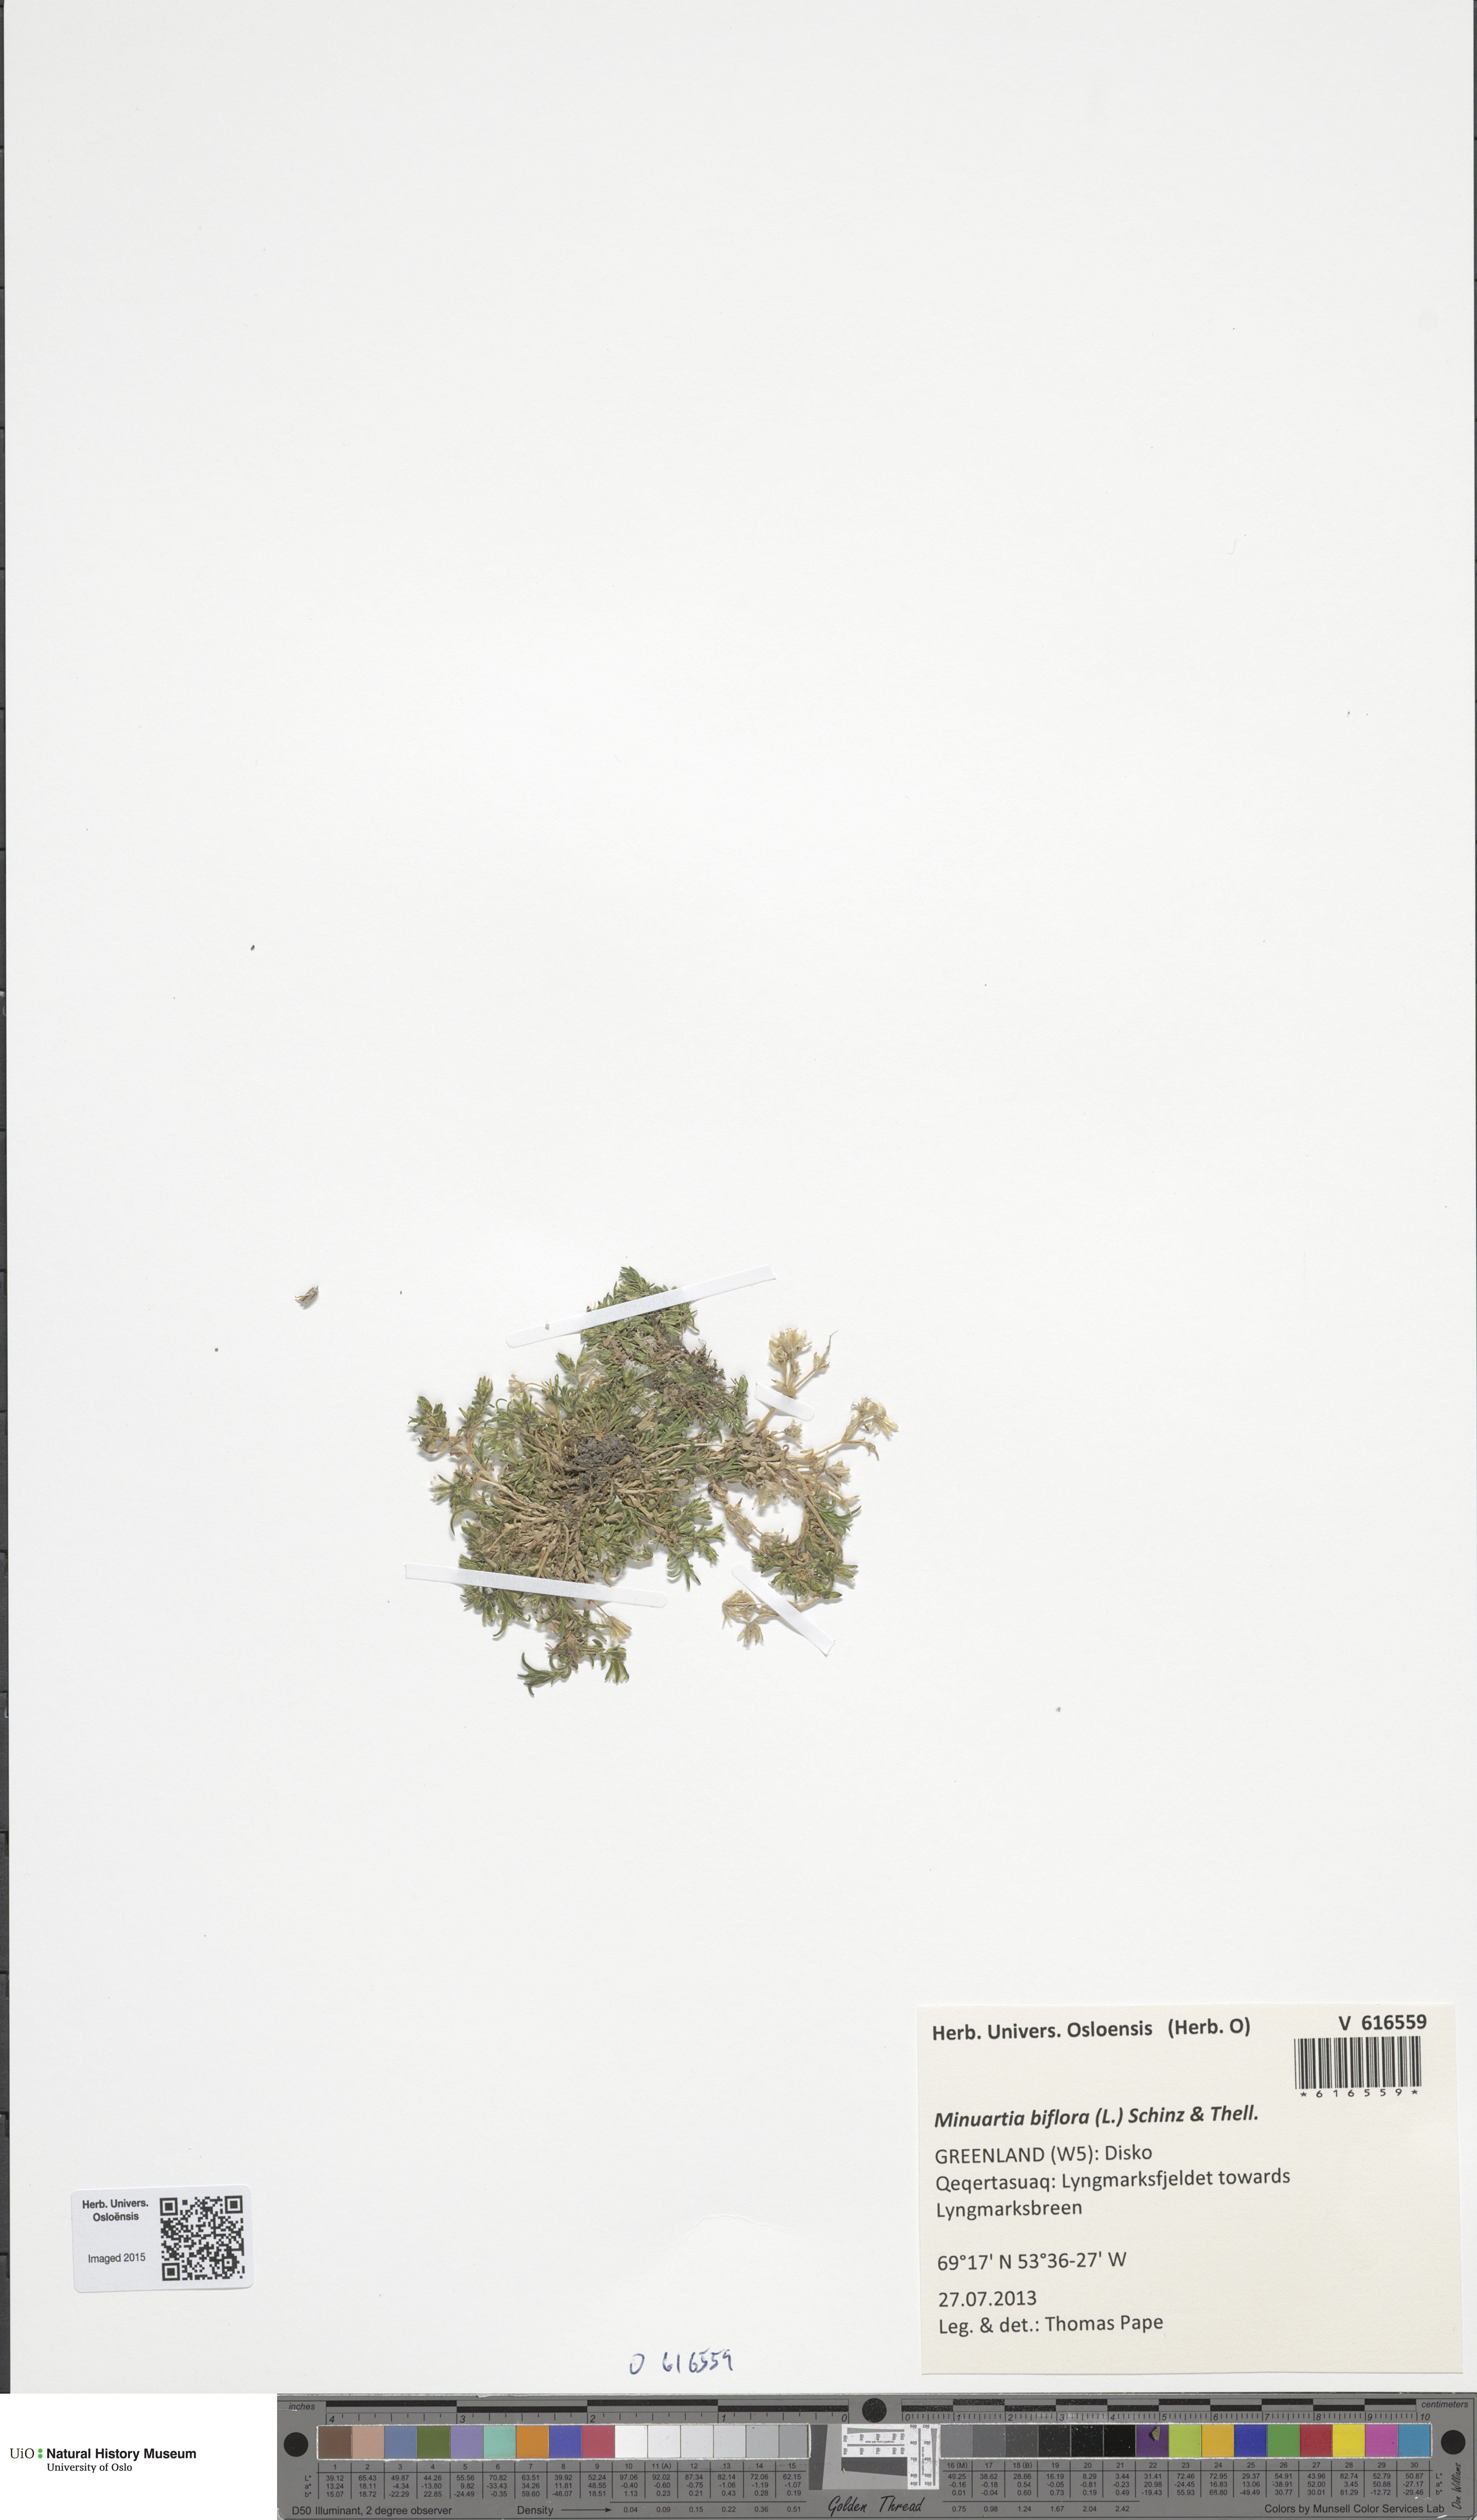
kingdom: Plantae
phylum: Tracheophyta
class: Magnoliopsida
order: Caryophyllales
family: Caryophyllaceae
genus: Cherleria
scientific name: Cherleria biflora
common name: Mountain sandwort
